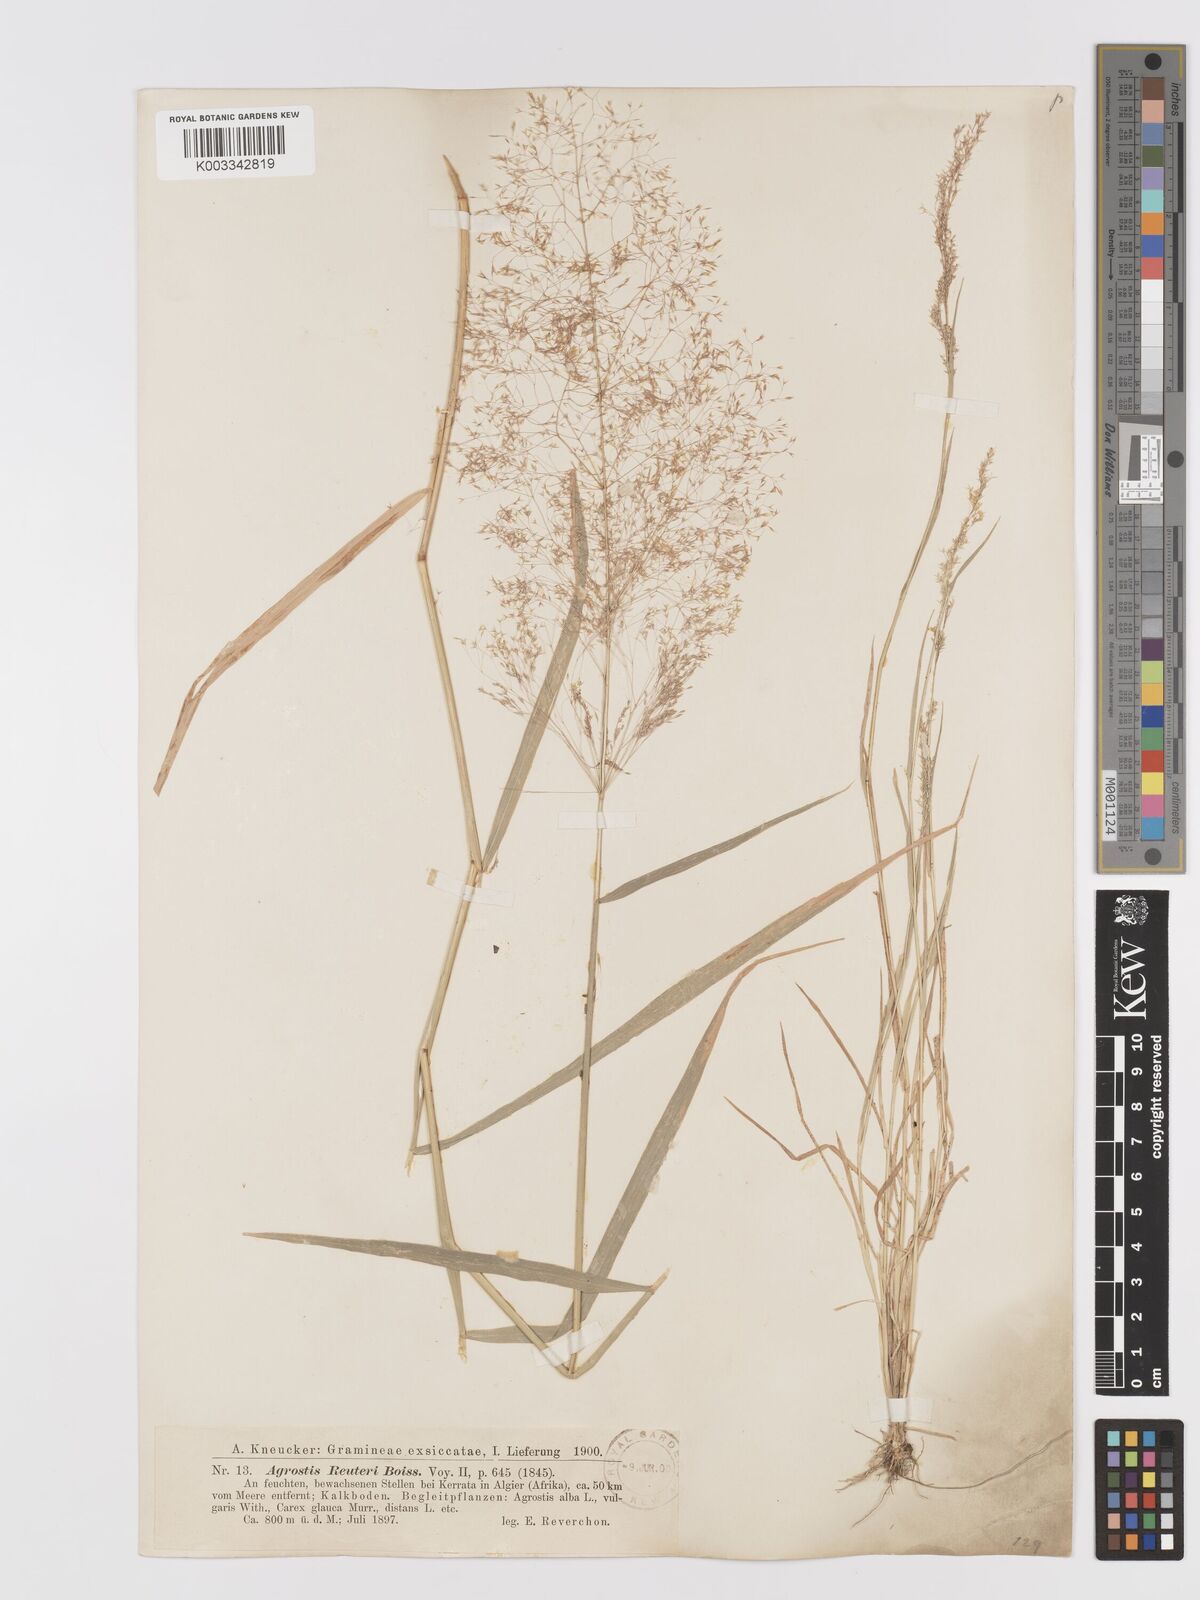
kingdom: Plantae
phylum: Tracheophyta
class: Liliopsida
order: Poales
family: Poaceae
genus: Agrostis
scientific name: Agrostis reuteri
